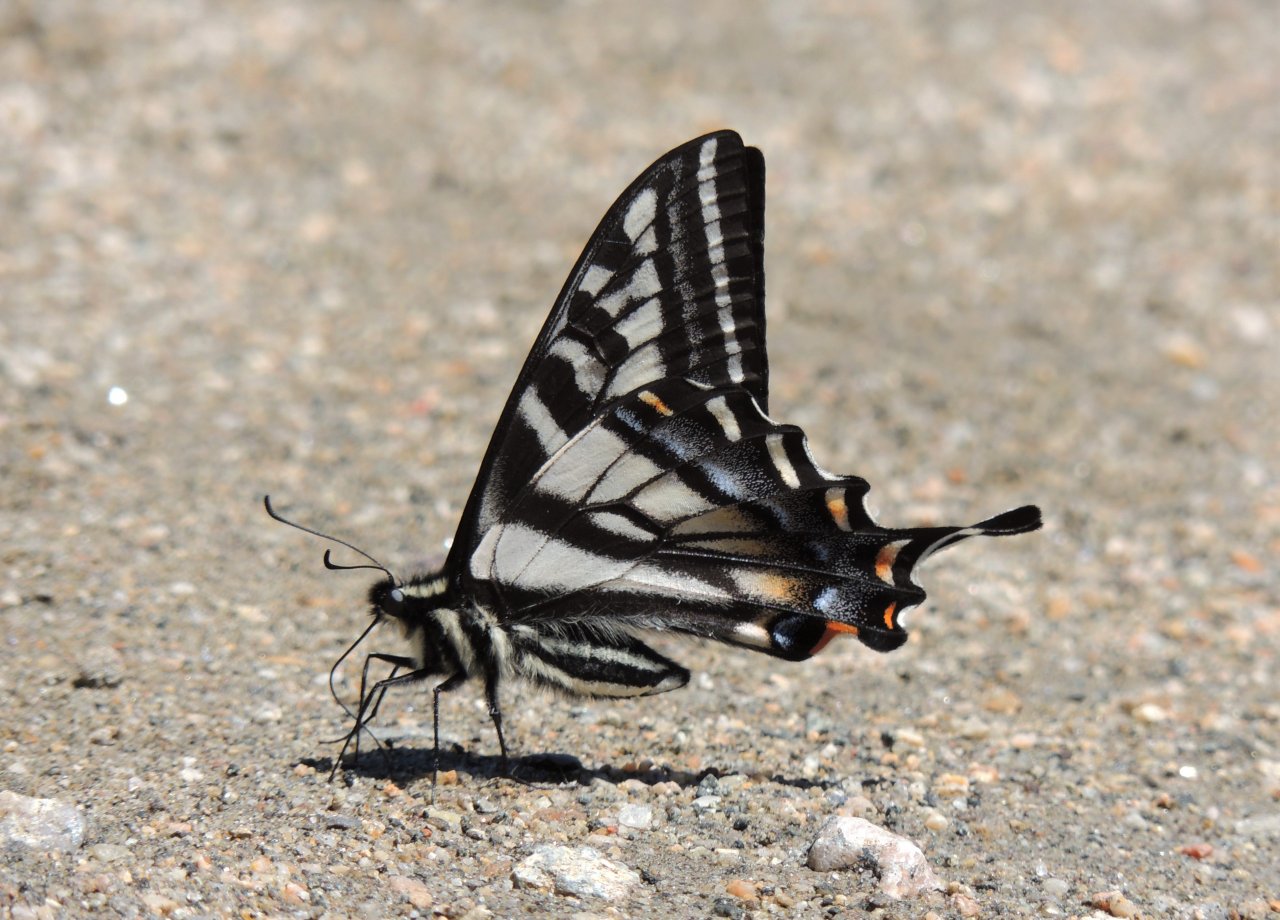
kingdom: Animalia
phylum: Arthropoda
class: Insecta
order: Lepidoptera
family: Papilionidae
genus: Pterourus
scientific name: Pterourus eurymedon
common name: Pale Swallowtail
